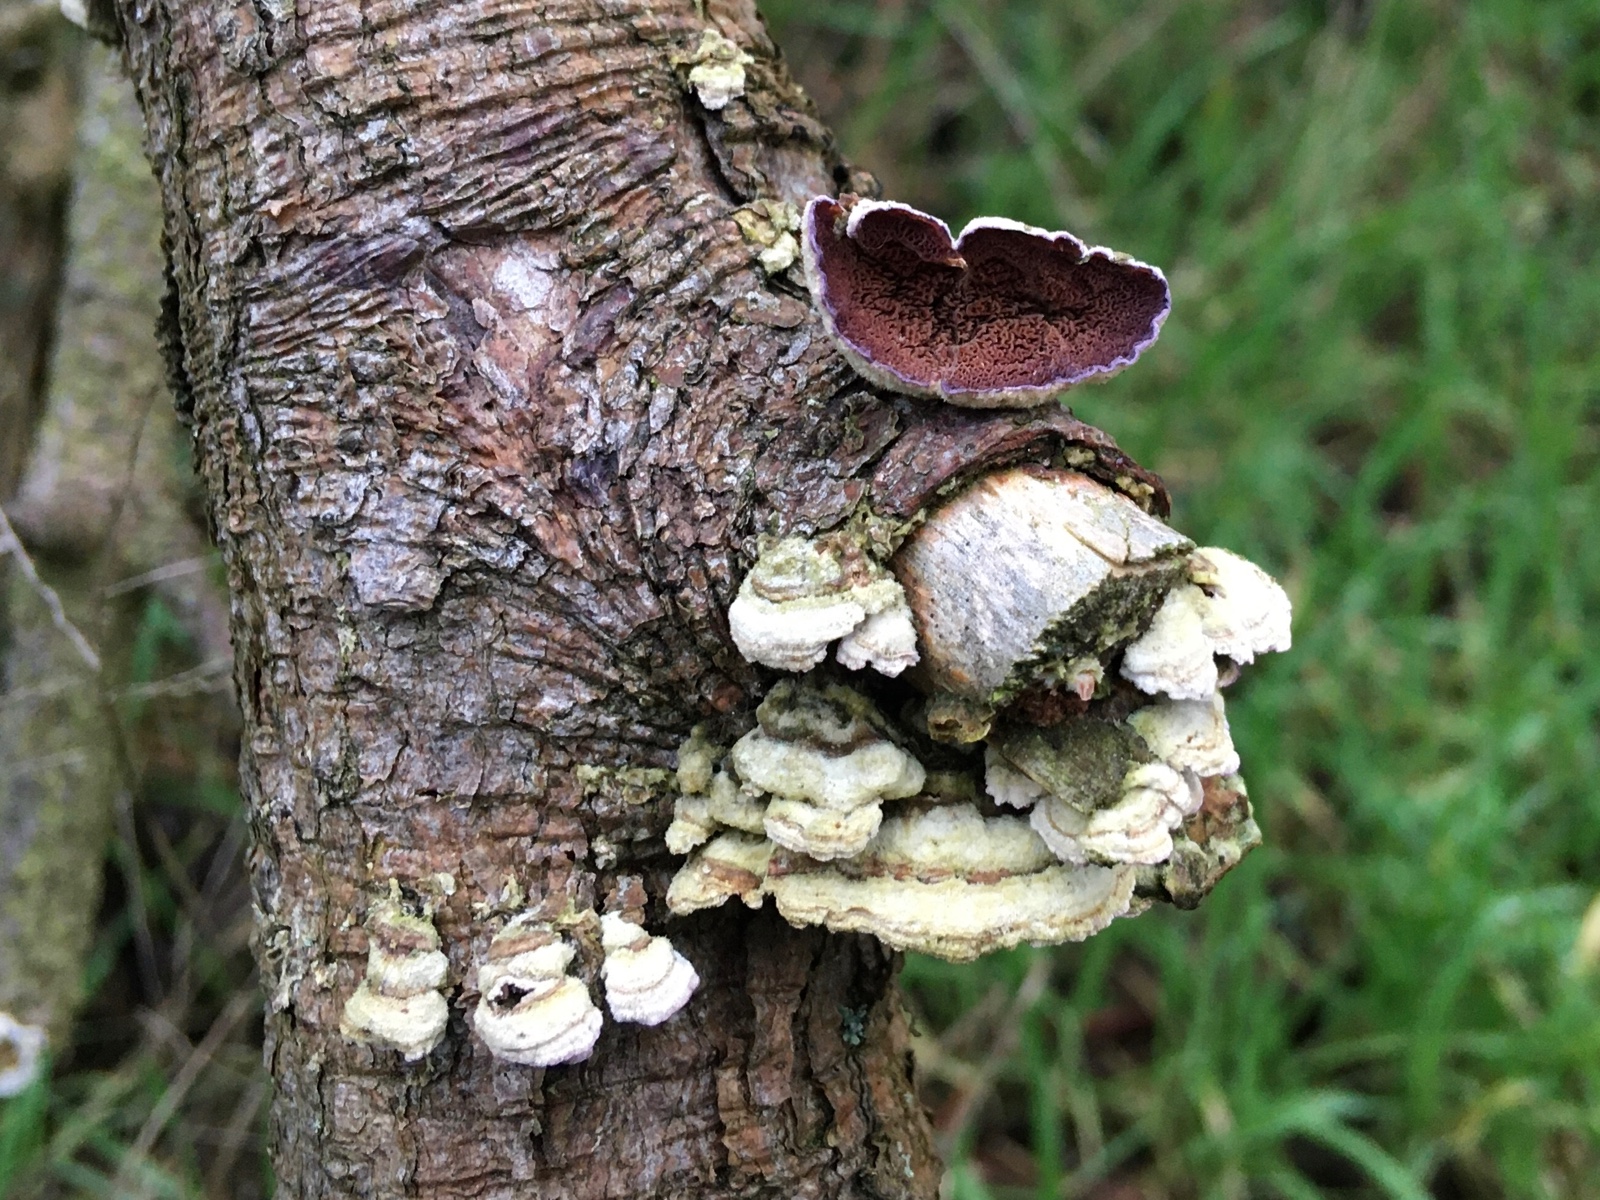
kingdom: Fungi
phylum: Basidiomycota
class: Agaricomycetes
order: Hymenochaetales
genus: Trichaptum
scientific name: Trichaptum abietinum
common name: almindelig violporesvamp
